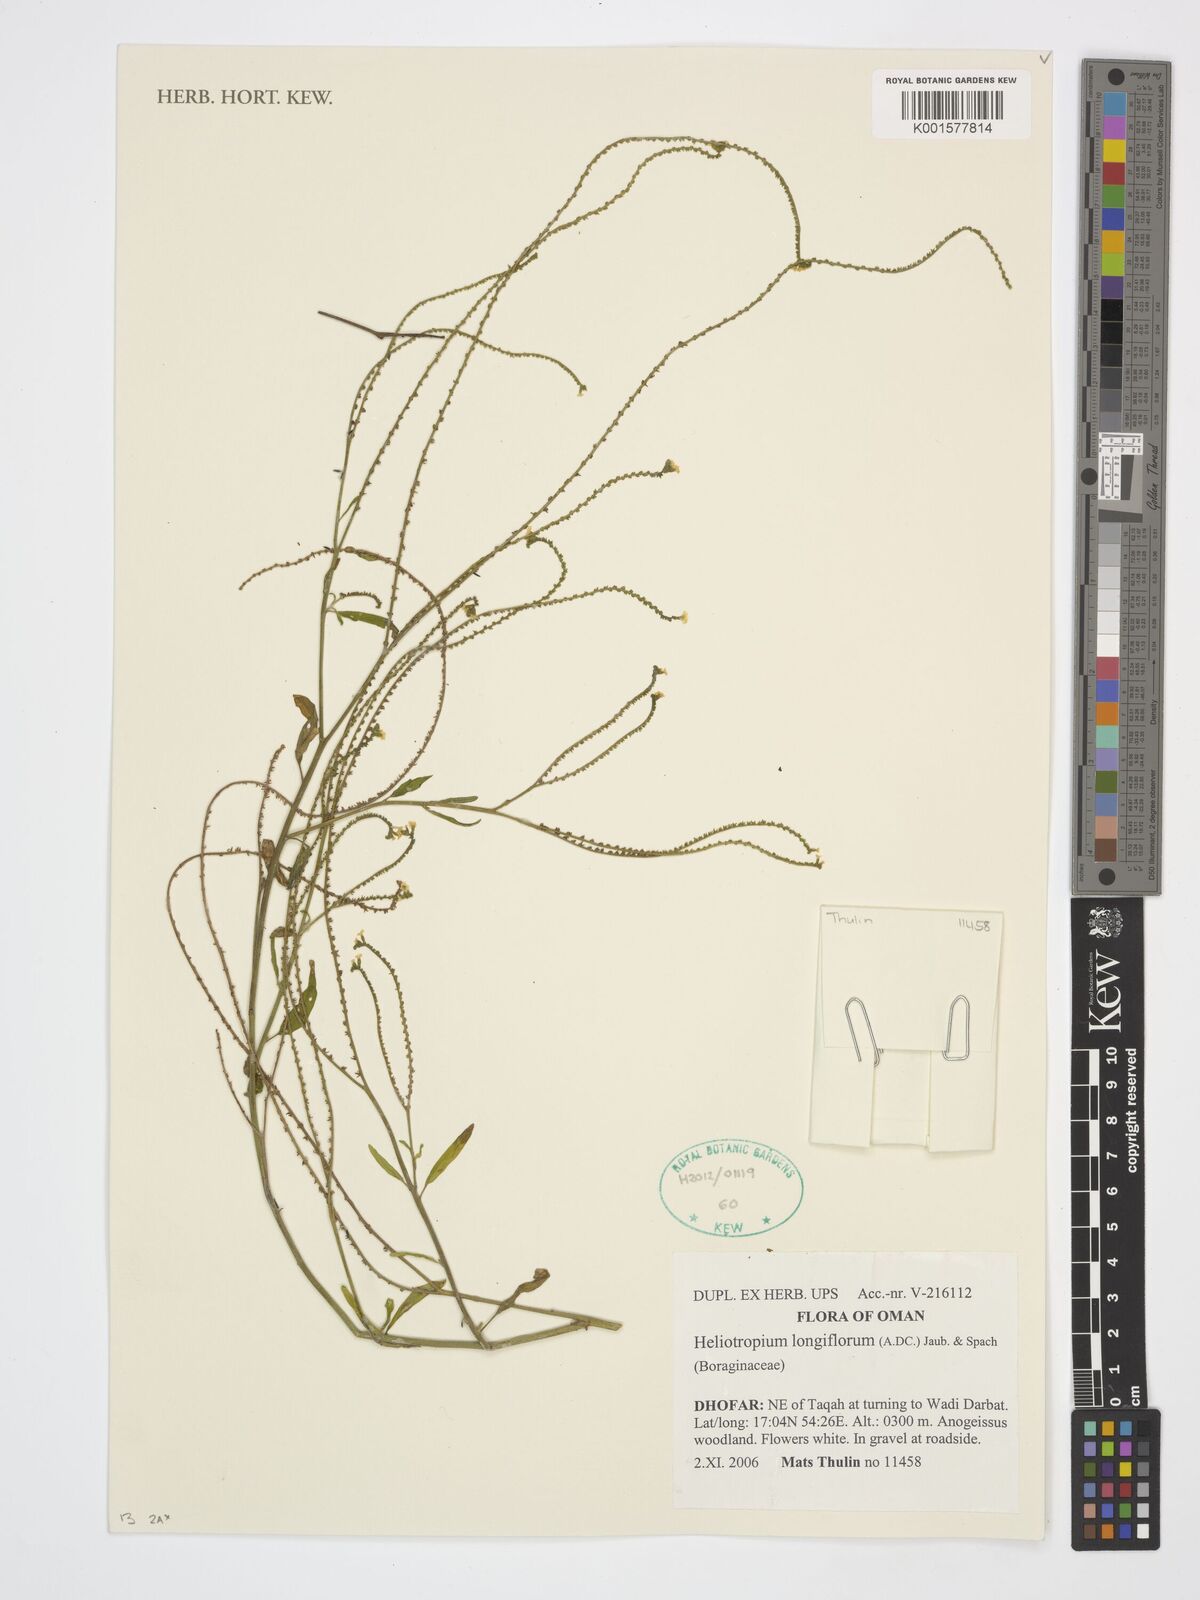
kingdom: Plantae
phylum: Tracheophyta
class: Magnoliopsida
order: Boraginales
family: Heliotropiaceae
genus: Heliotropium
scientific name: Heliotropium longiflorum
